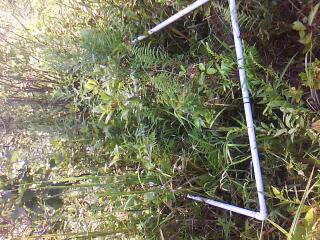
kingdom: Plantae
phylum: Tracheophyta
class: Magnoliopsida
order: Asterales
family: Asteraceae
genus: Symphyotrichum
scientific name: Symphyotrichum lanceolatum
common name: Panicled aster
